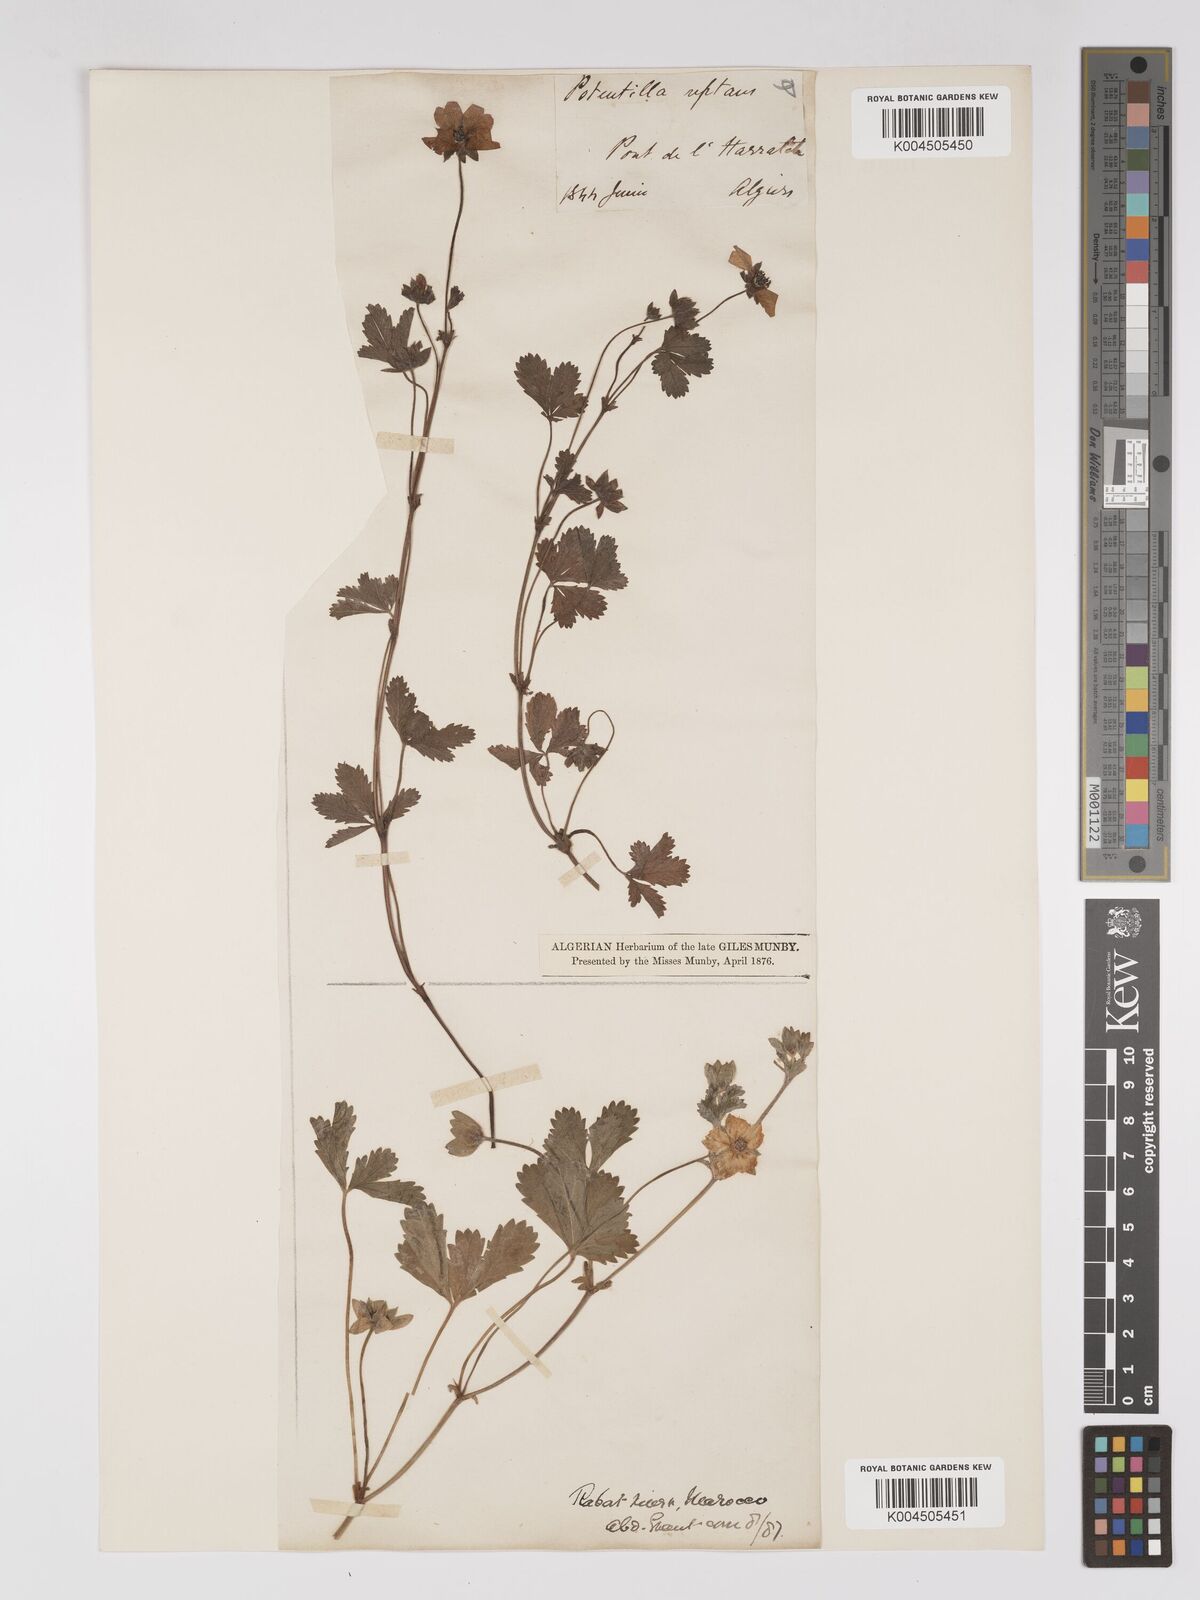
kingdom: Plantae
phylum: Tracheophyta
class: Magnoliopsida
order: Rosales
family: Rosaceae
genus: Potentilla
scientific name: Potentilla reptans
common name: Creeping cinquefoil
